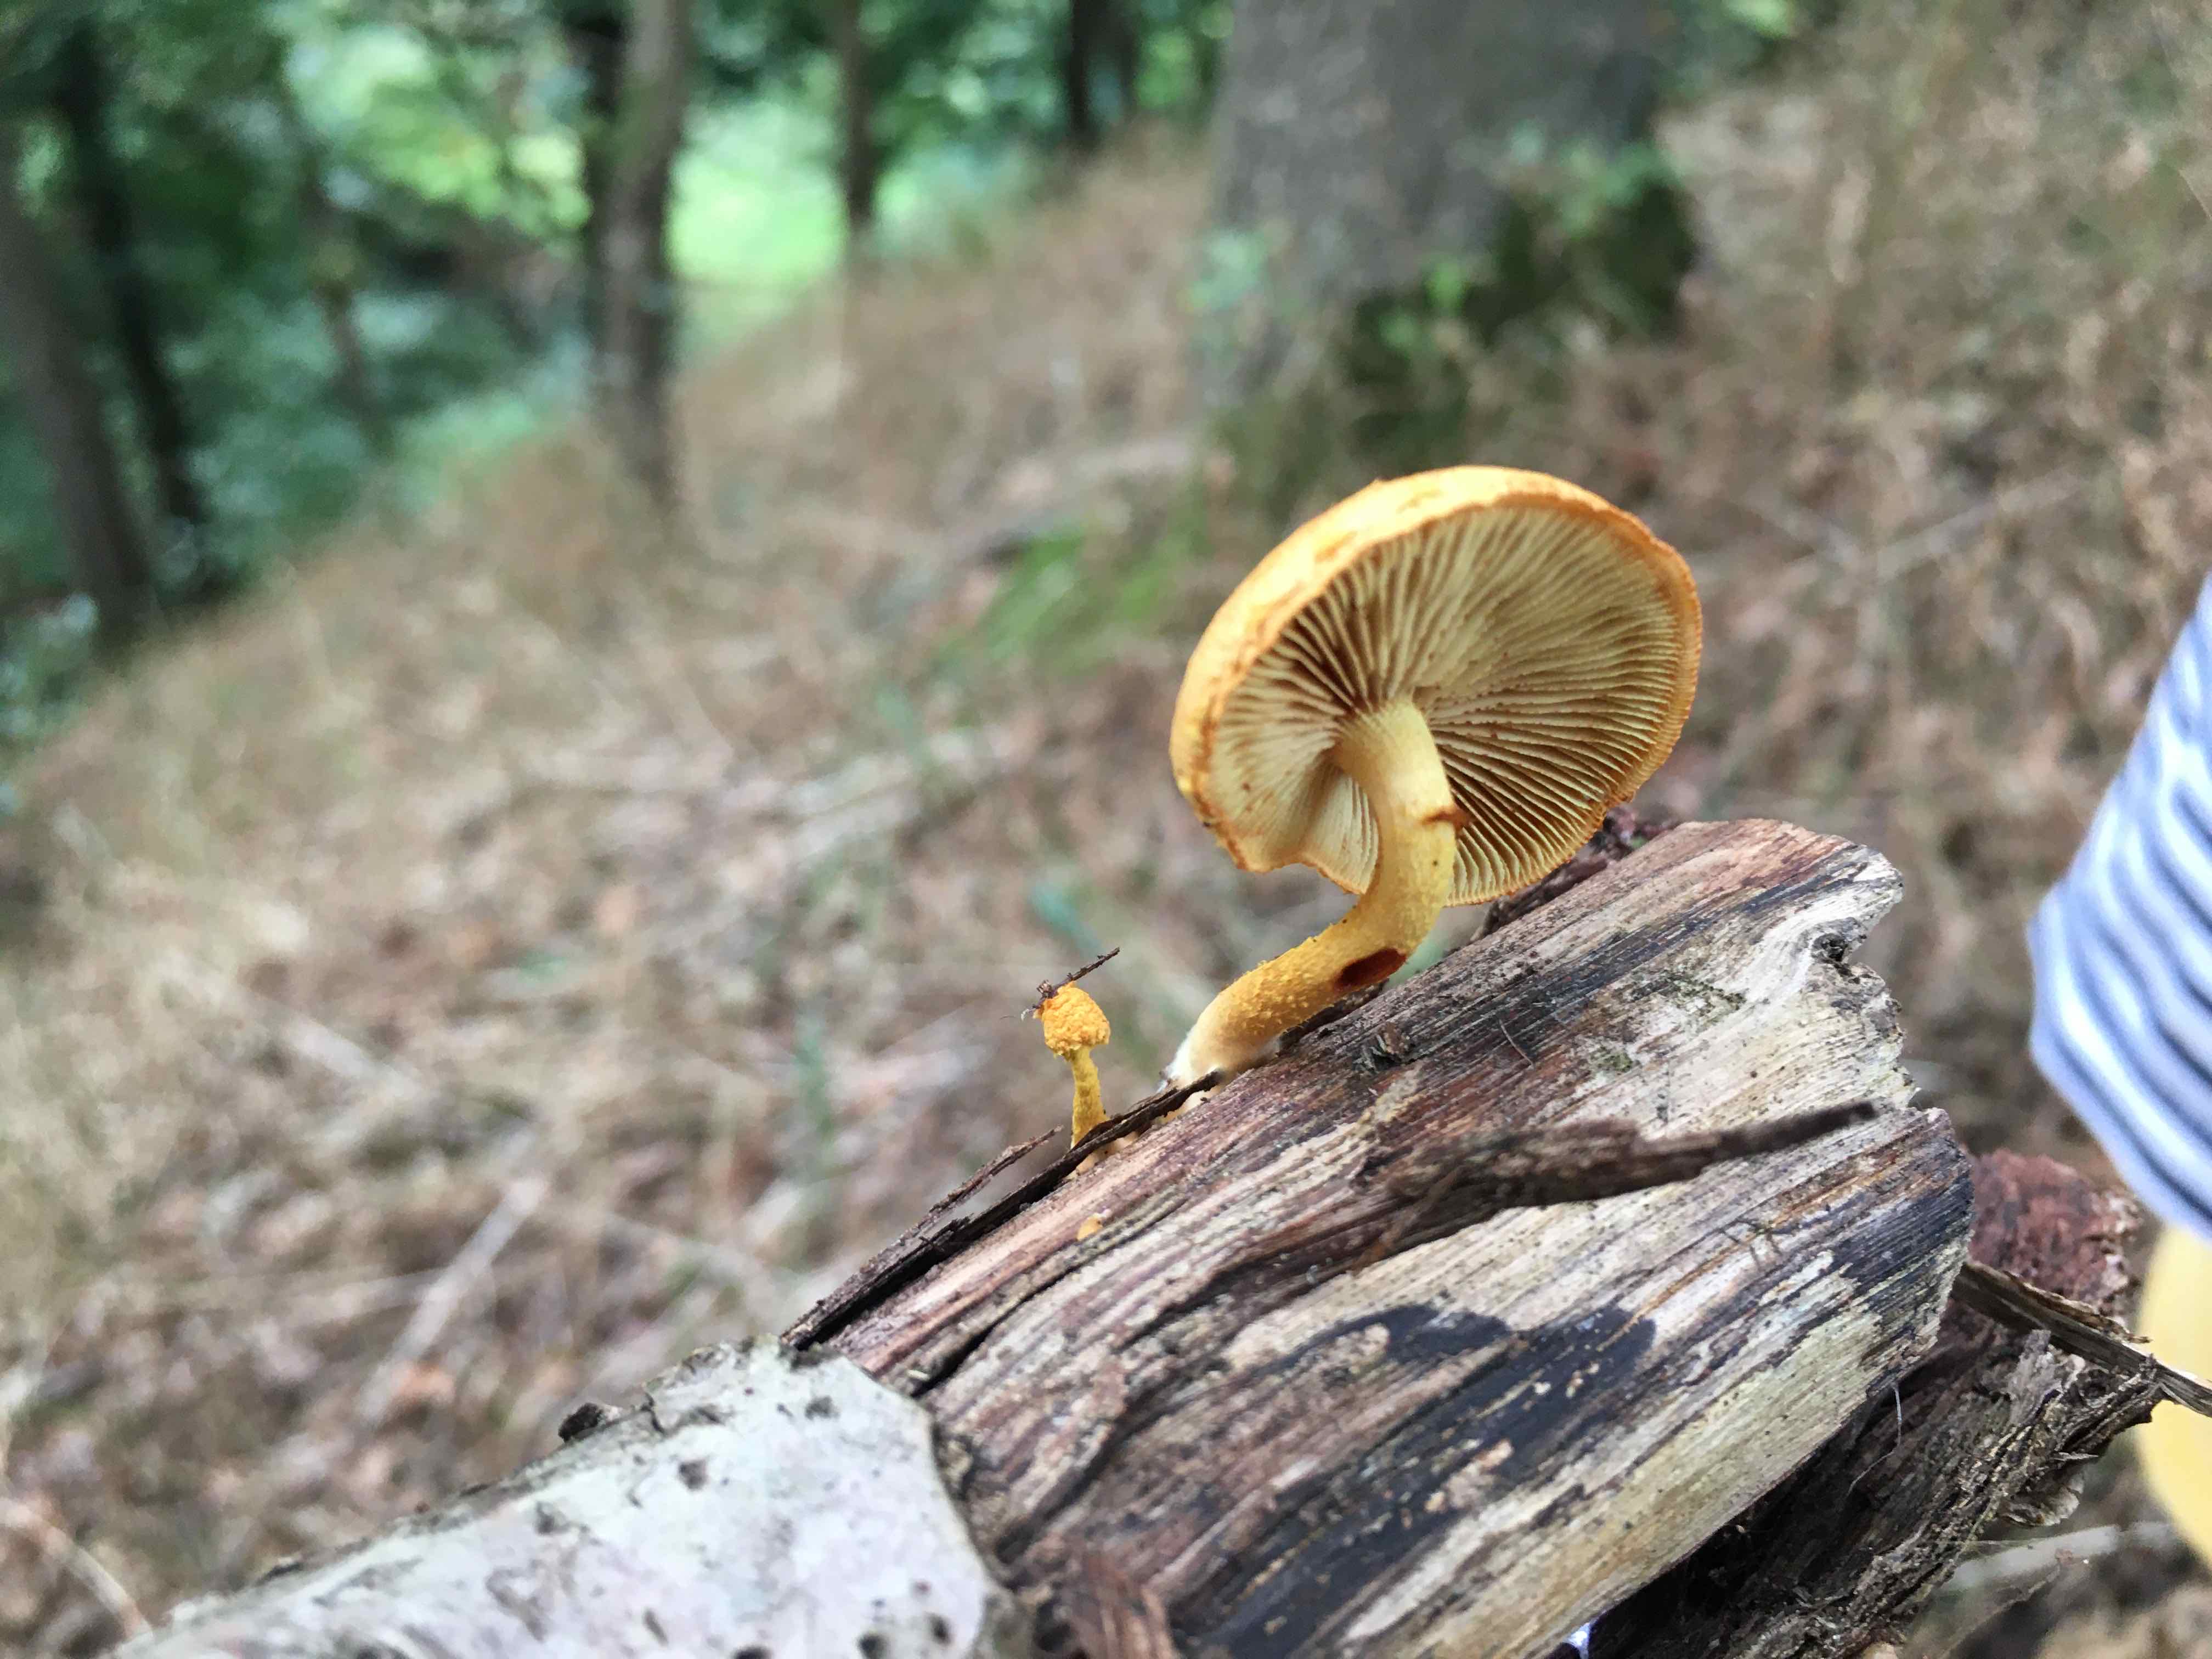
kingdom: Fungi
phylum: Basidiomycota
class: Agaricomycetes
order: Agaricales
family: Strophariaceae
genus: Pholiota
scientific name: Pholiota tuberculosa
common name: finskællet skælhat
